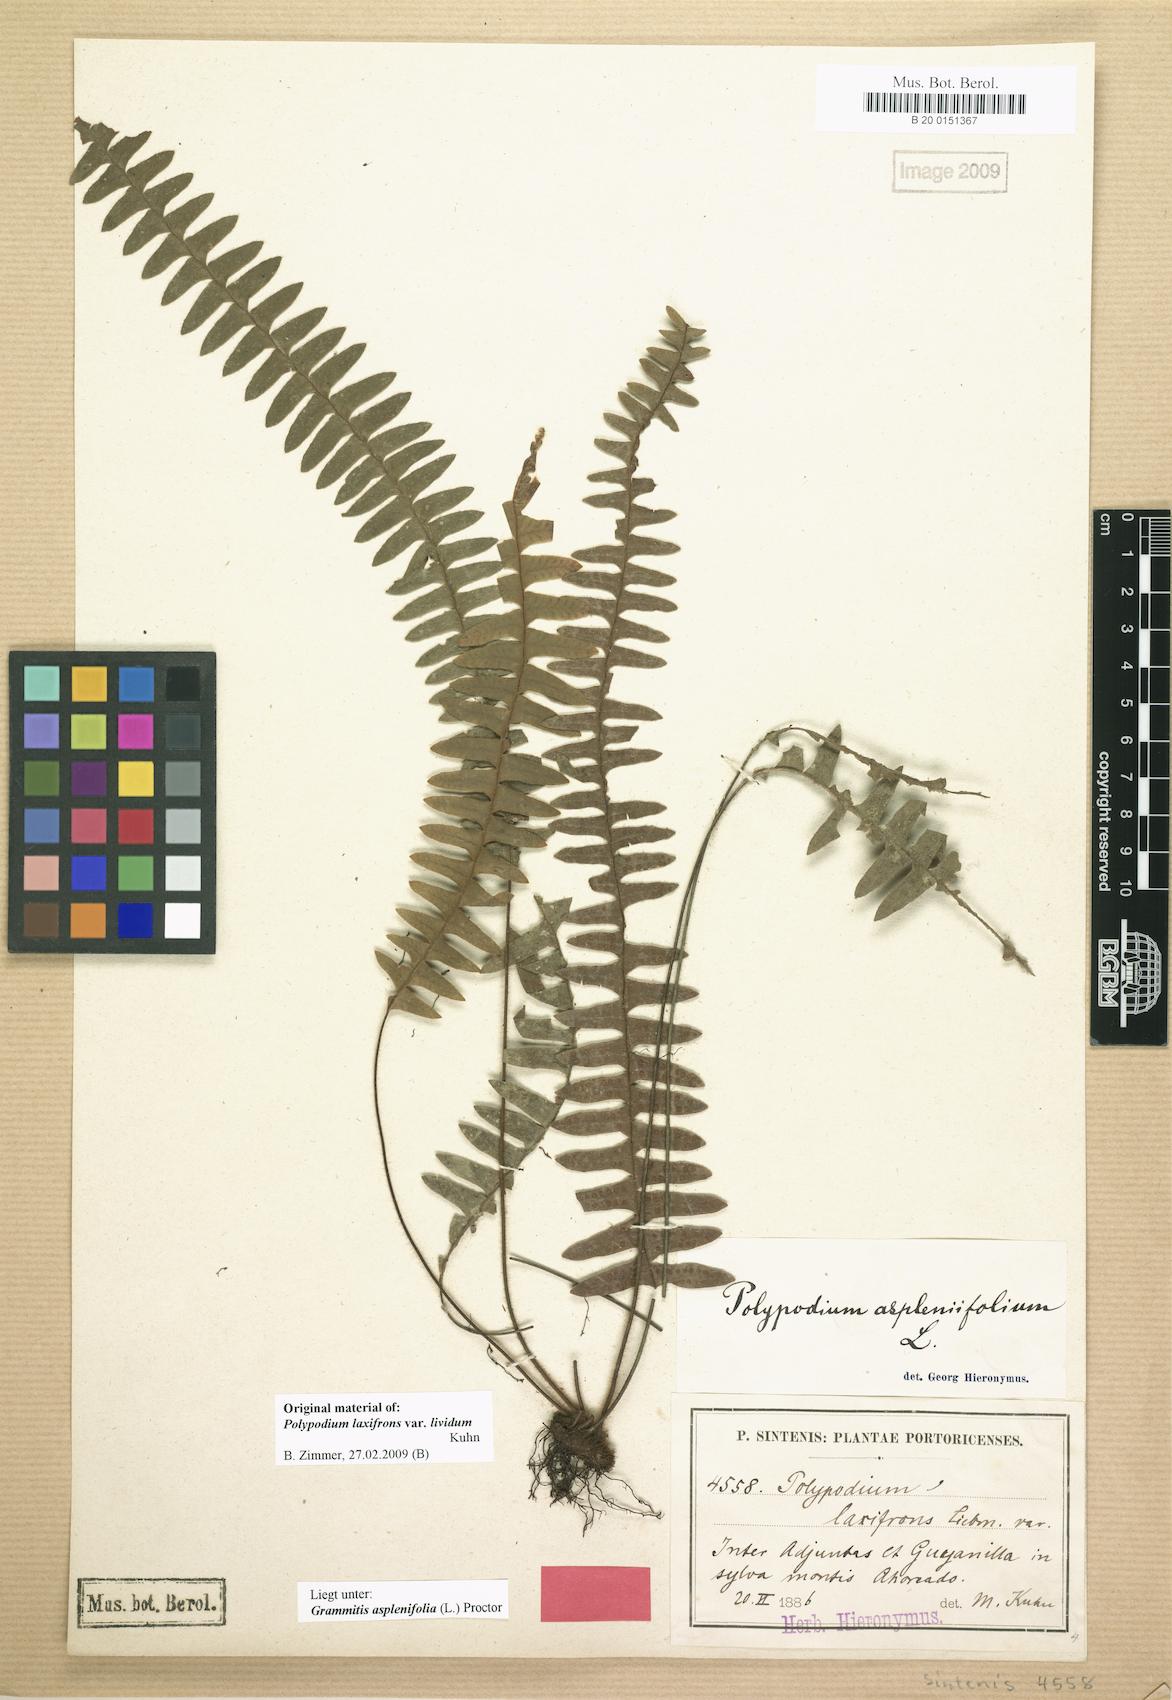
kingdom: Plantae
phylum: Tracheophyta
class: Polypodiopsida
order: Polypodiales
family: Polypodiaceae
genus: Terpsichore
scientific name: Terpsichore asplenifolia
